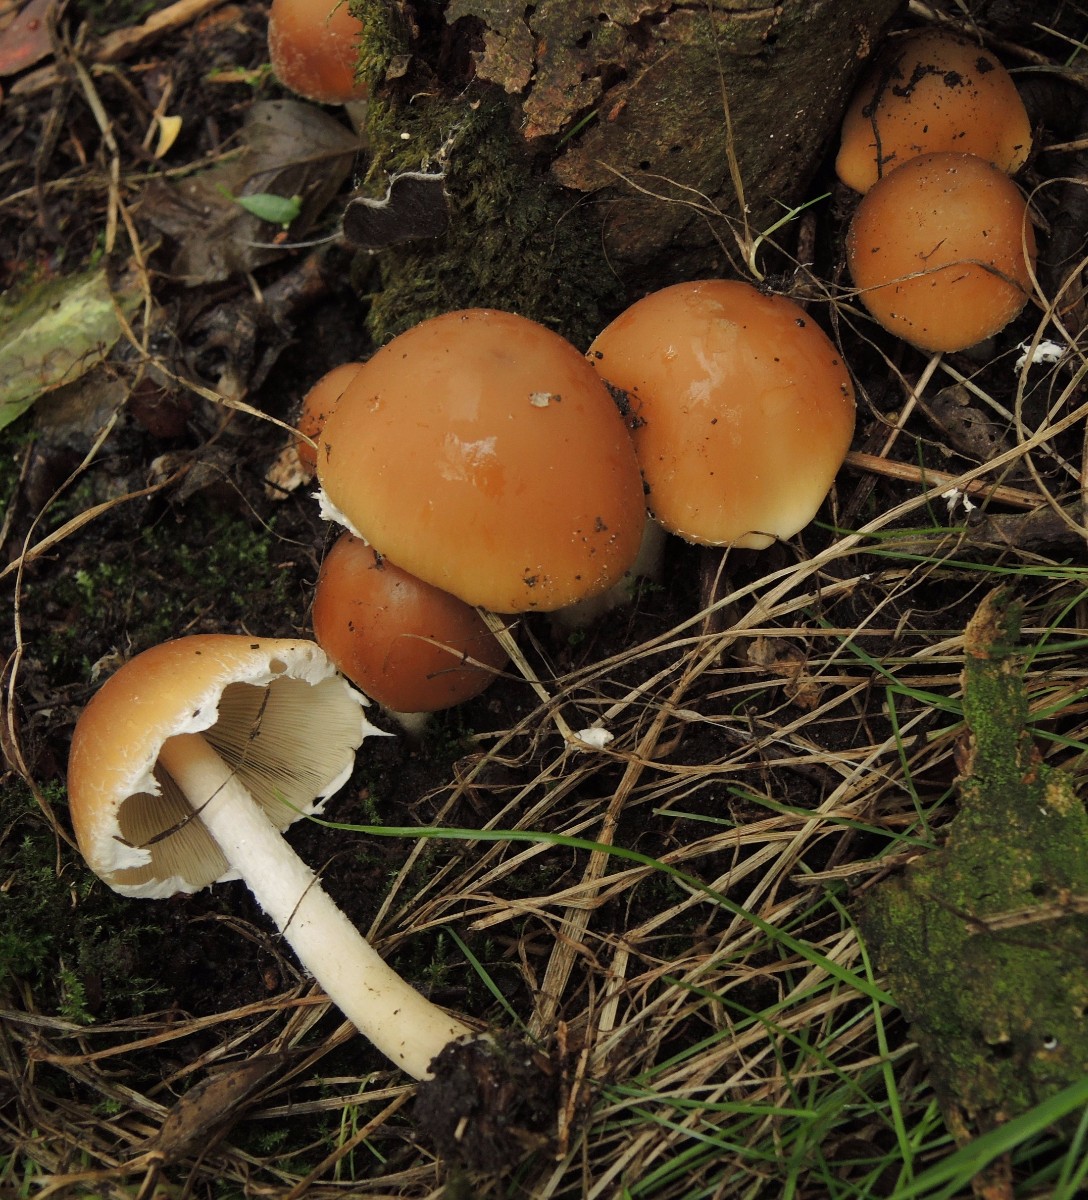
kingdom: Fungi
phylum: Basidiomycota
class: Agaricomycetes
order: Agaricales
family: Psathyrellaceae
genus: Psathyrella
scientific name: Psathyrella piluliformis
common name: lysstokket mørkhat
